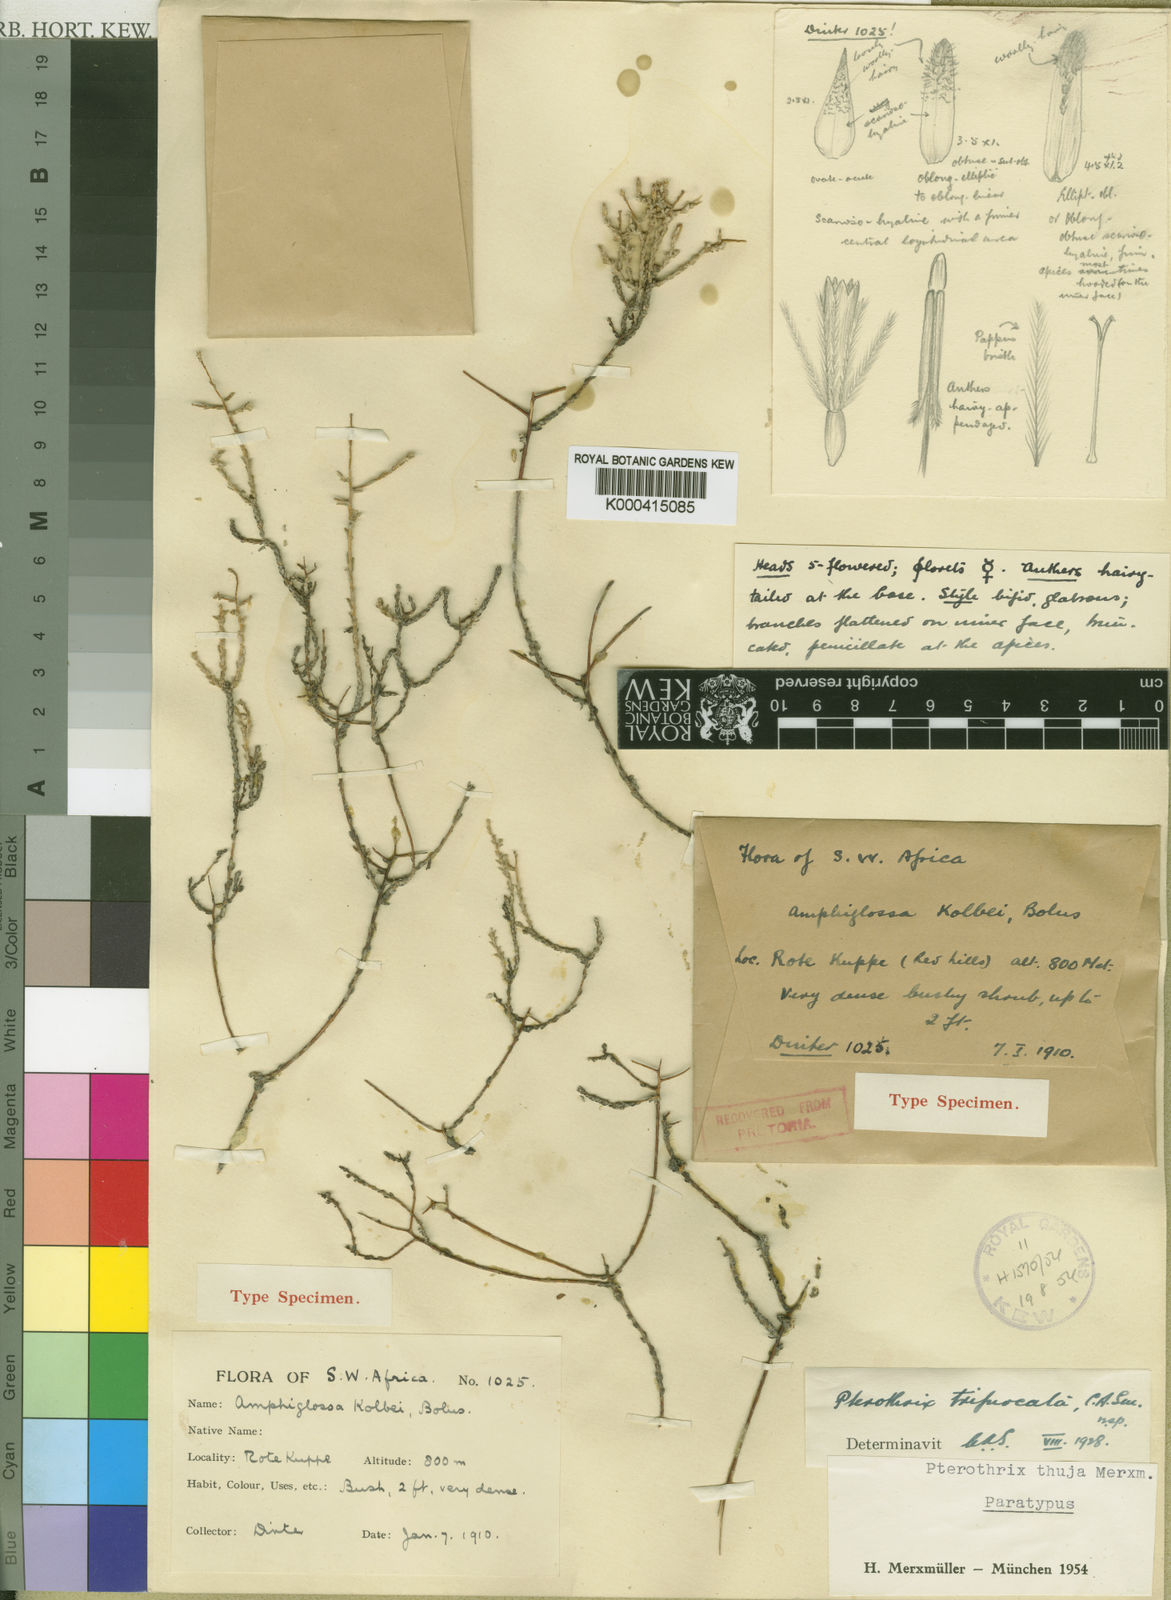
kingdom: Plantae
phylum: Tracheophyta
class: Magnoliopsida
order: Asterales
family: Asteraceae
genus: Pterothrix
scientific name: Pterothrix
